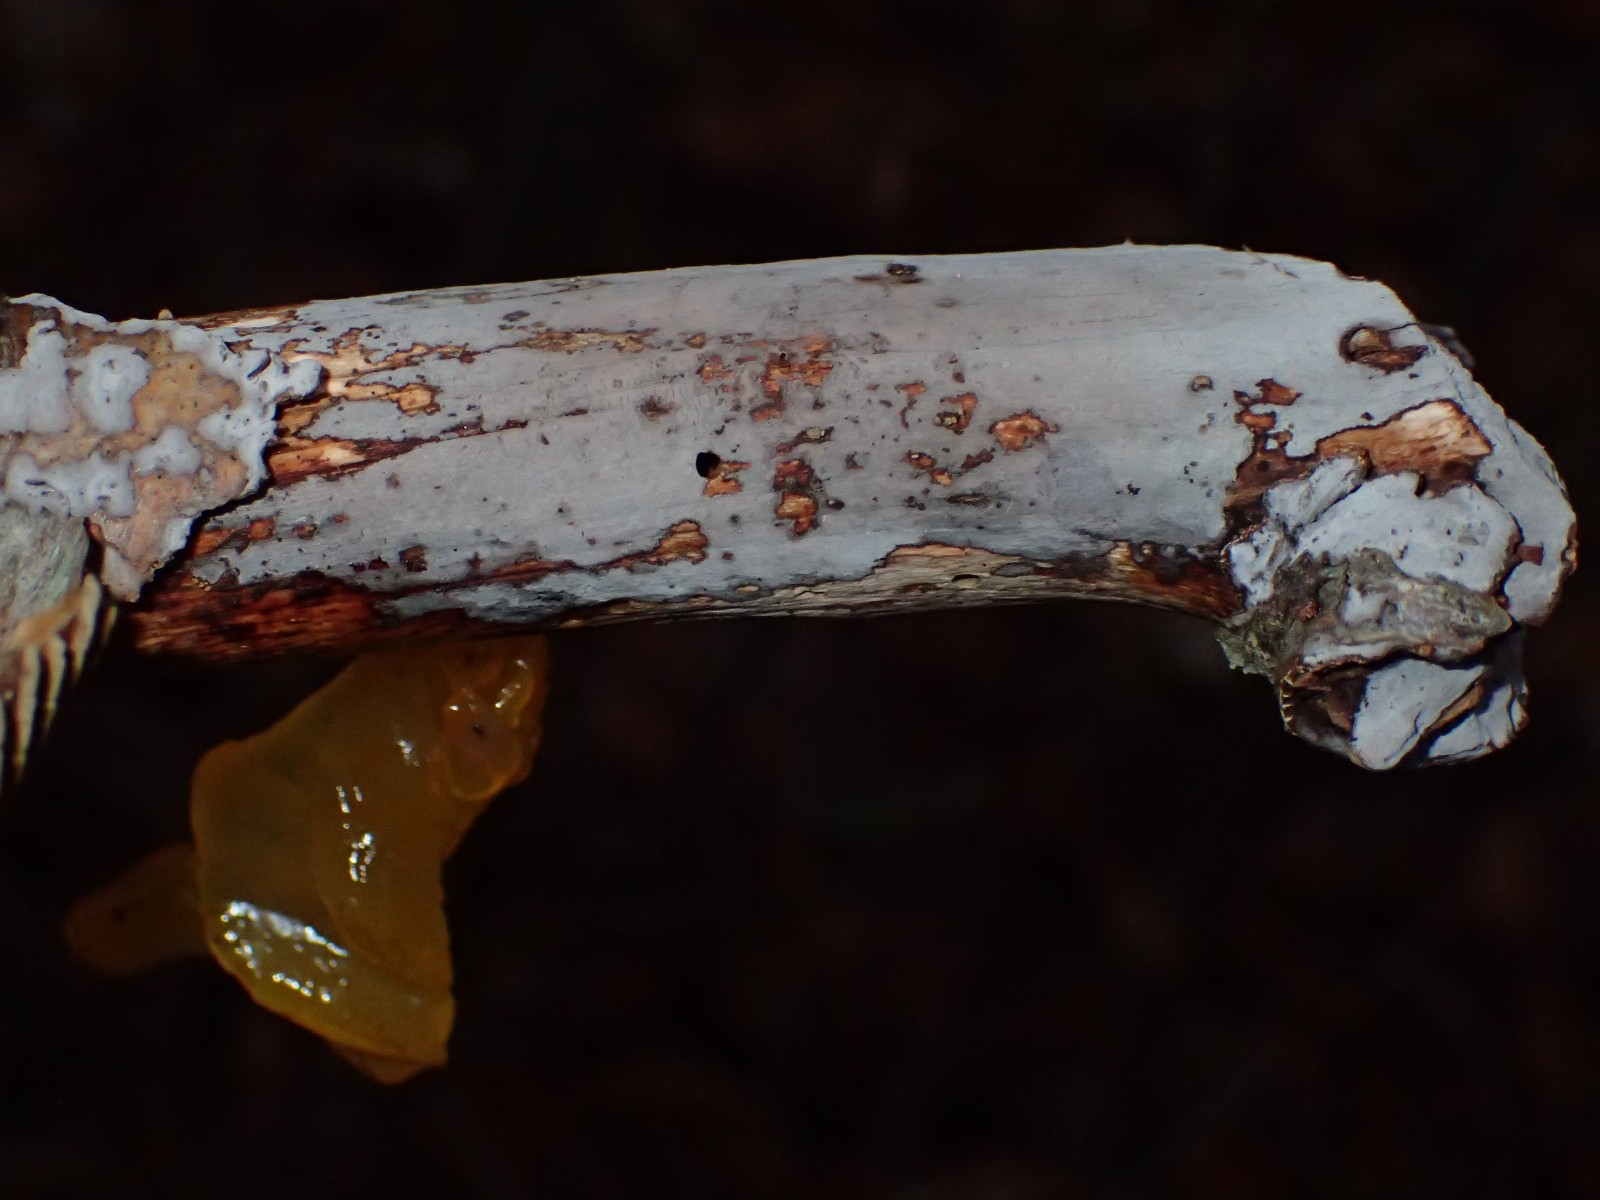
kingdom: Fungi
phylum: Basidiomycota
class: Agaricomycetes
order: Russulales
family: Peniophoraceae
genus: Peniophora
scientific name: Peniophora
